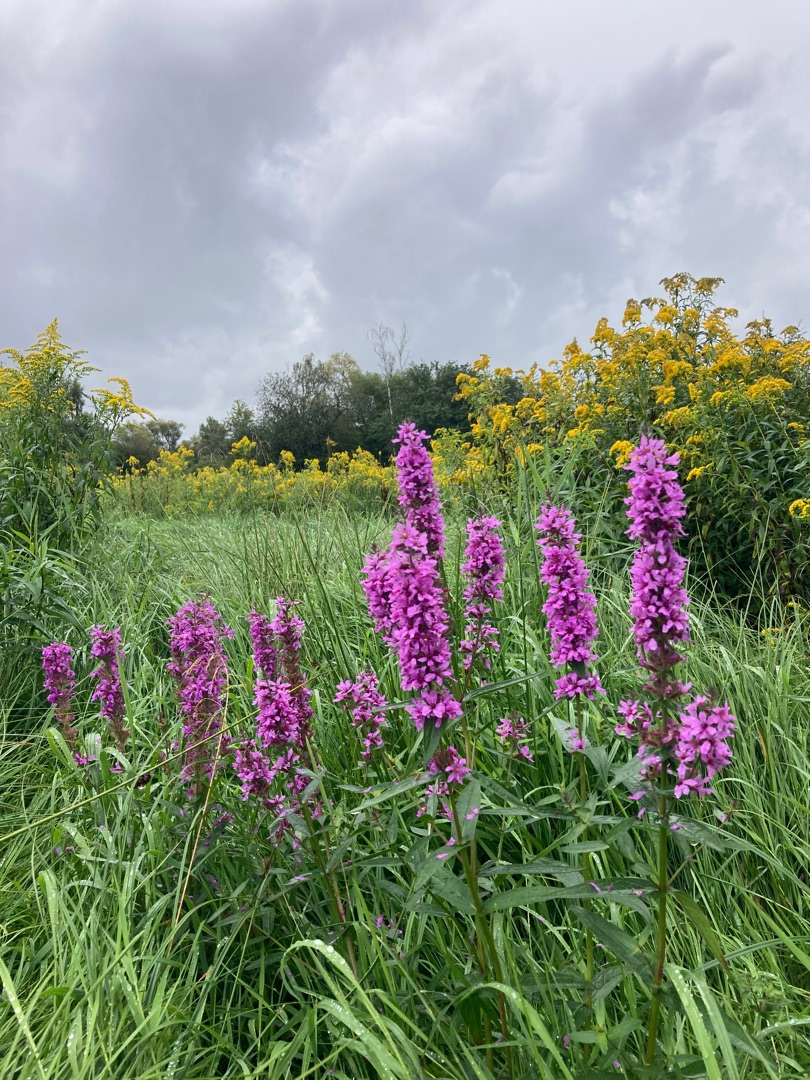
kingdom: Plantae
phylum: Tracheophyta
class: Magnoliopsida
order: Myrtales
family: Lythraceae
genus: Lythrum
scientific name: Lythrum salicaria
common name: Kattehale
